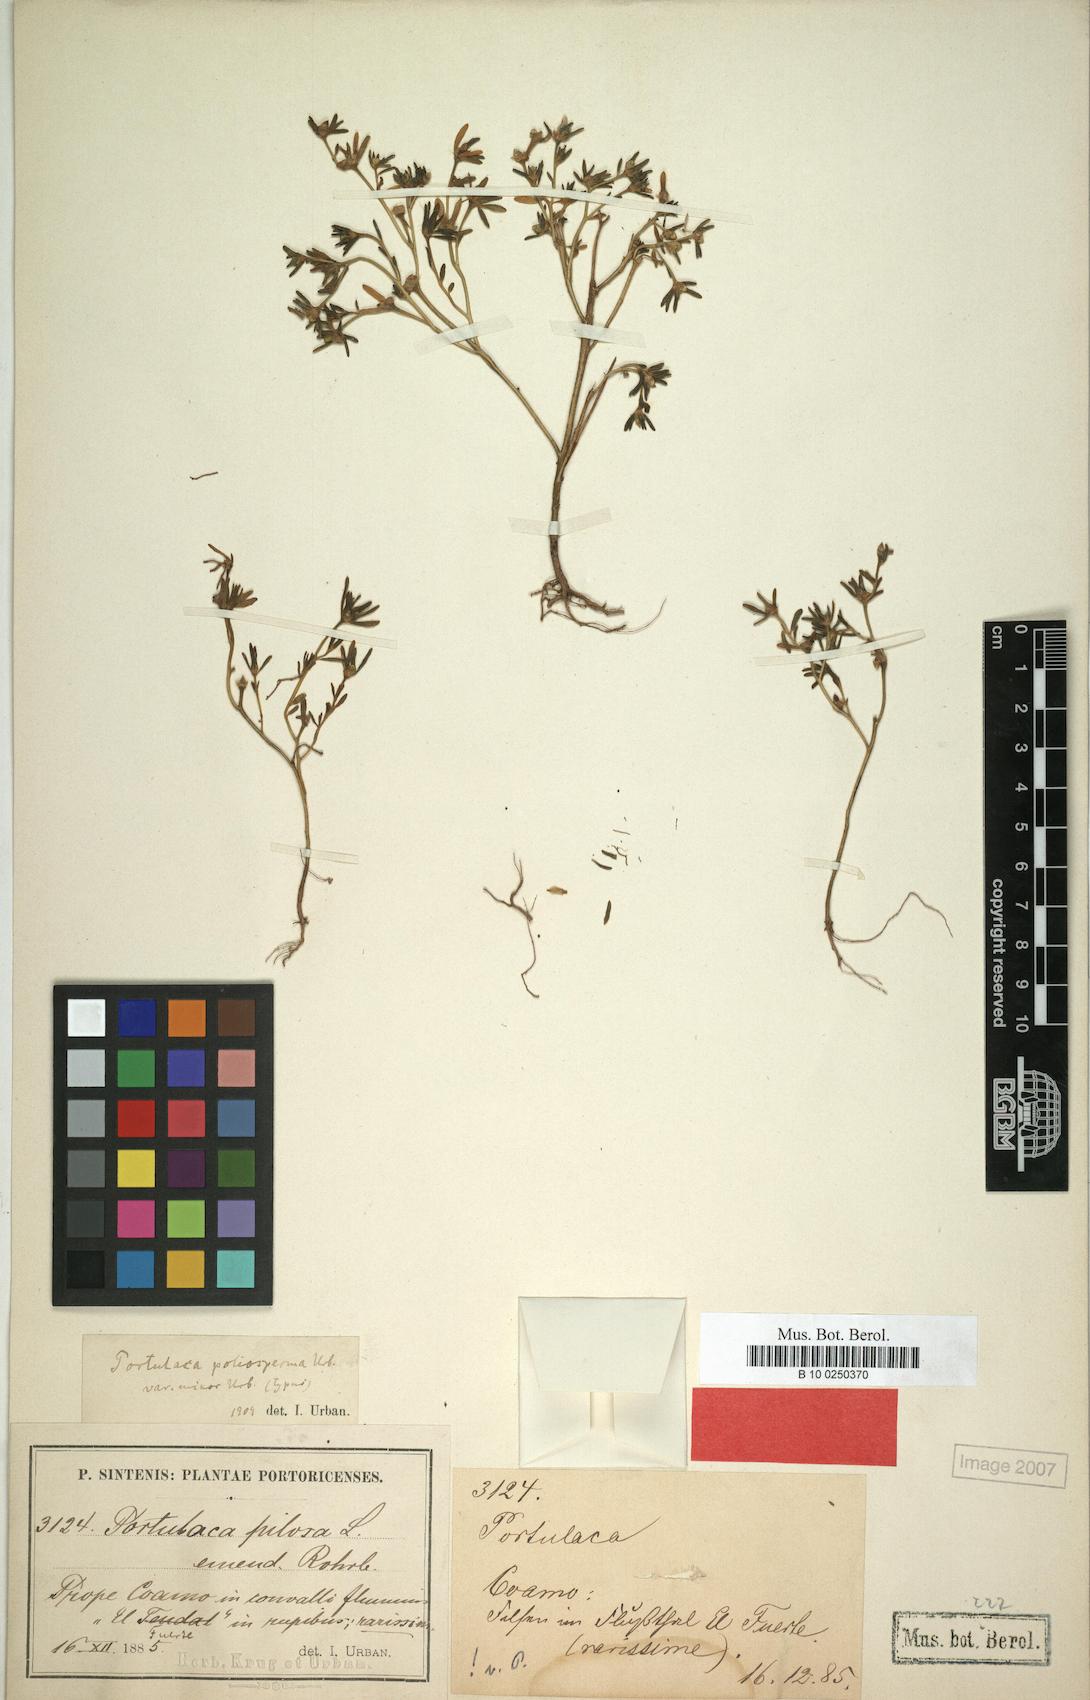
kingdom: Plantae
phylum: Tracheophyta
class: Magnoliopsida
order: Caryophyllales
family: Portulacaceae
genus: Portulaca
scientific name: Portulaca teretifolia
